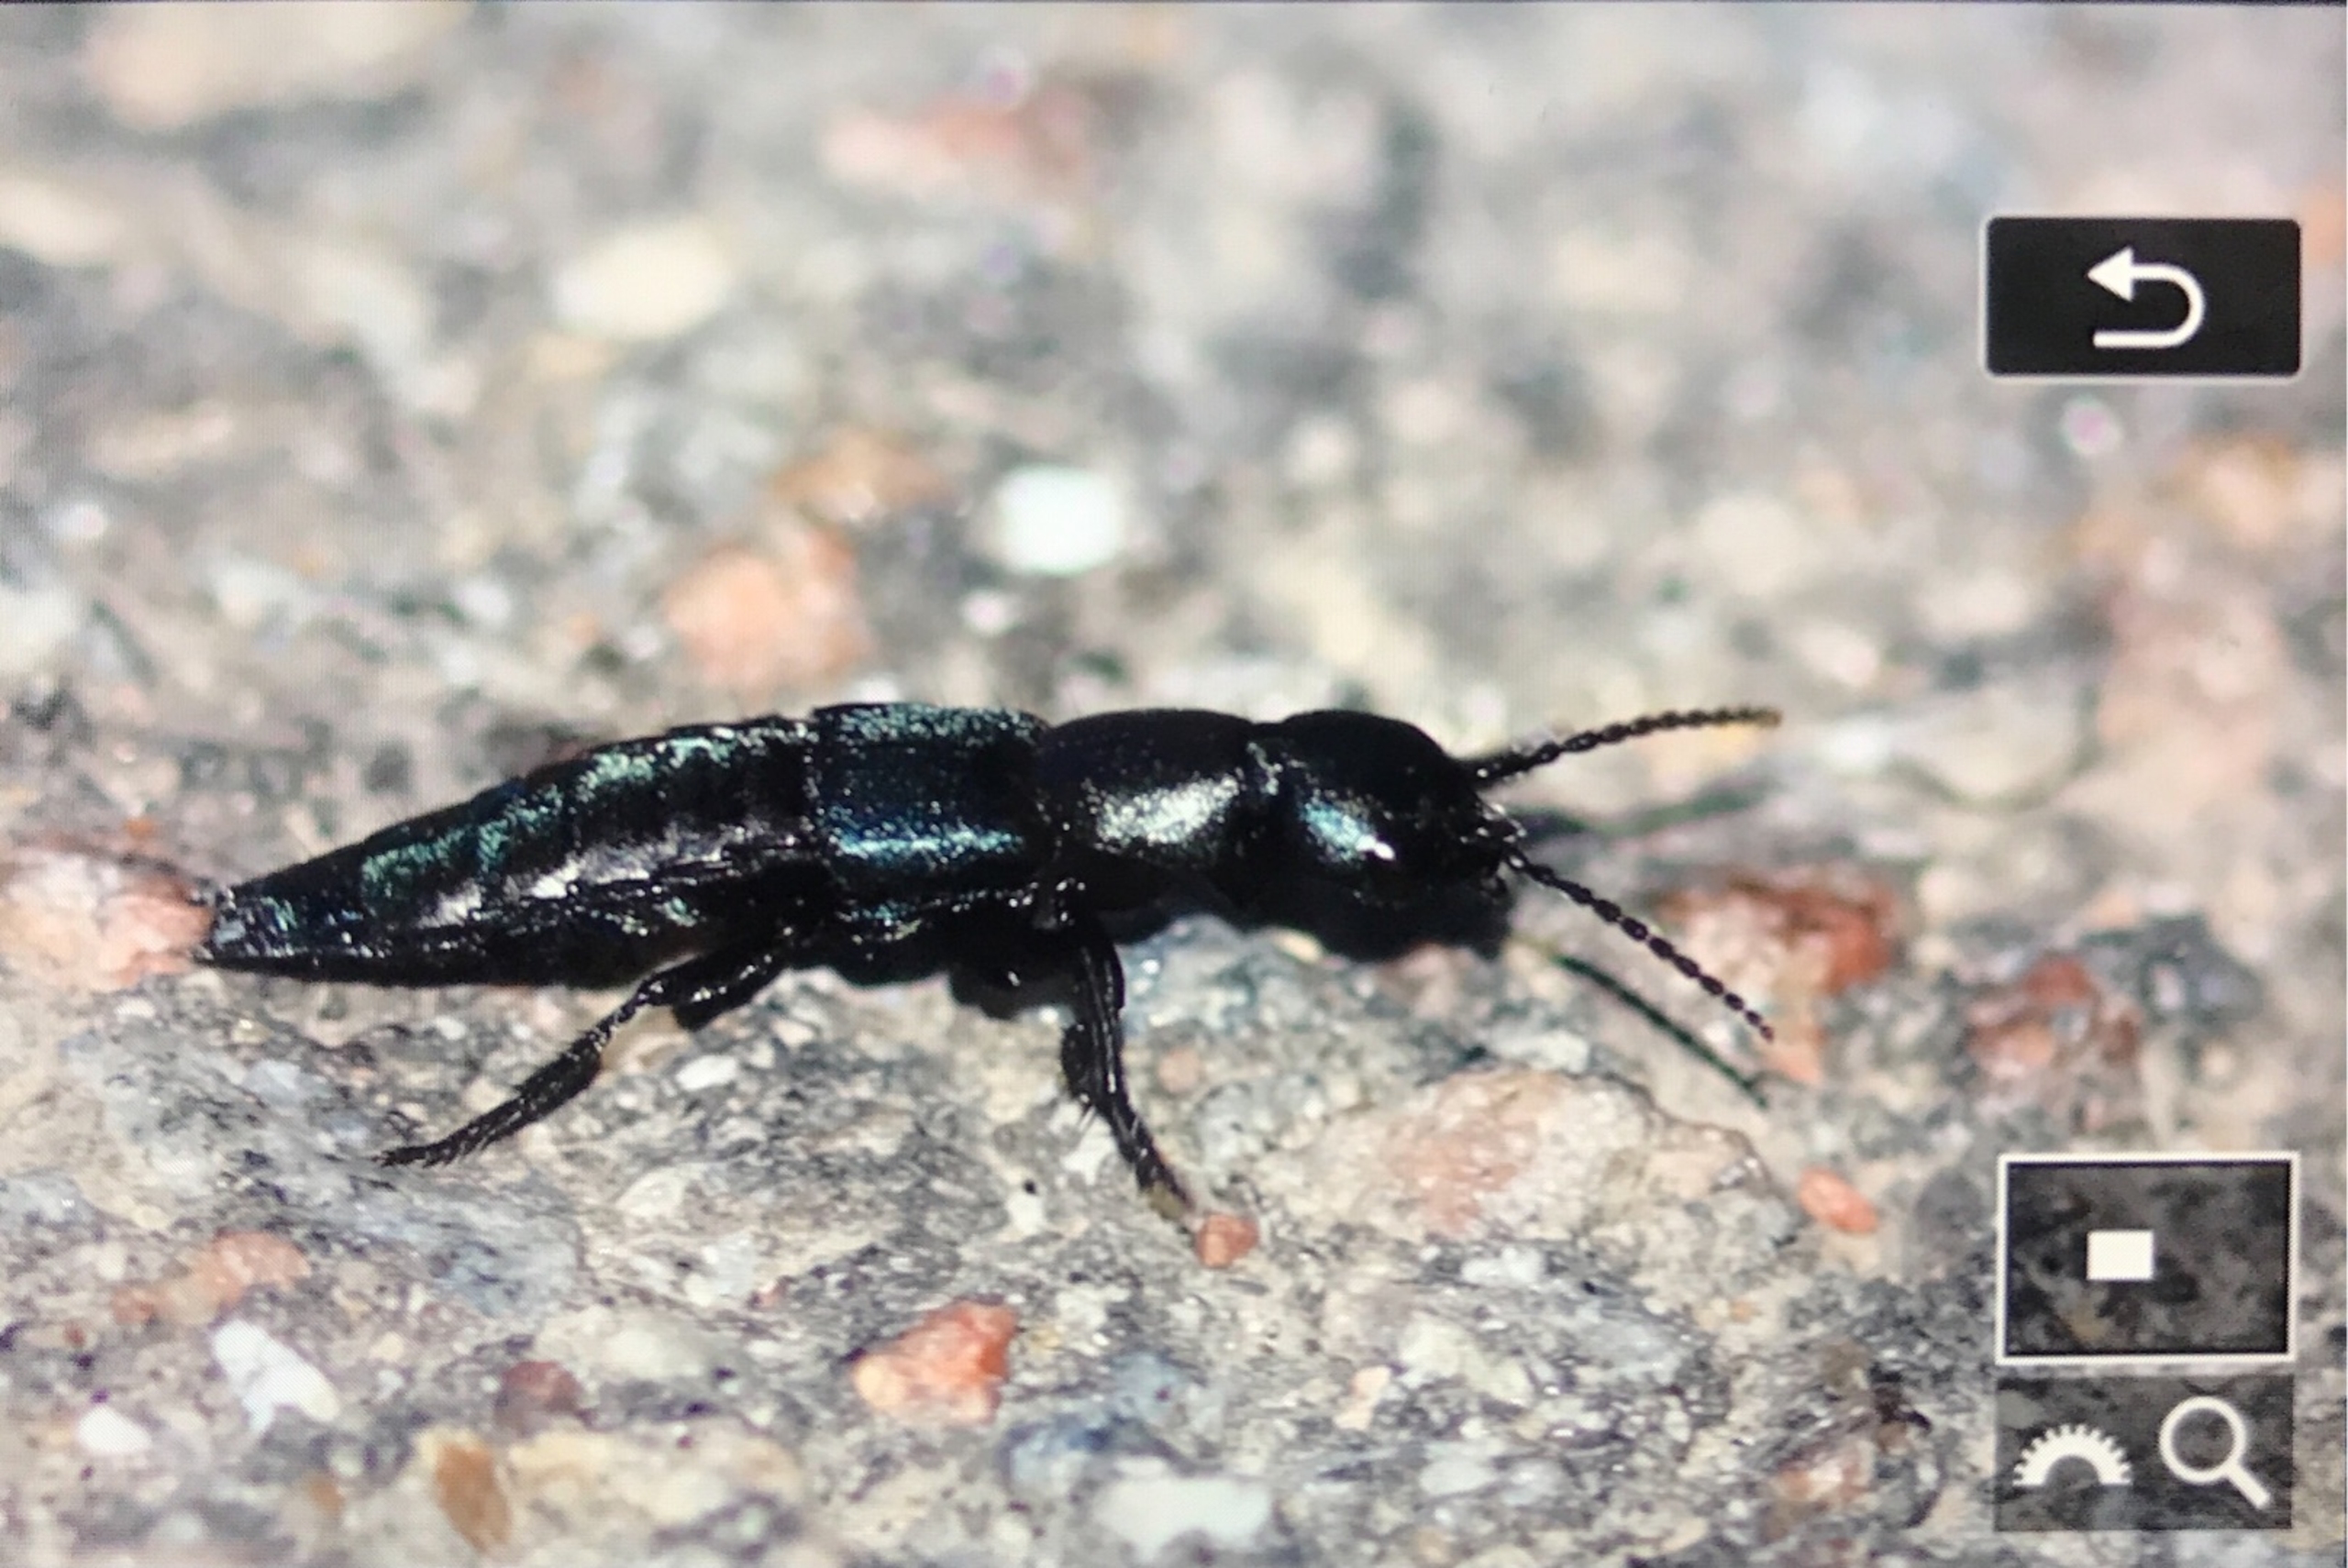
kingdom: Animalia
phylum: Arthropoda
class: Insecta
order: Coleoptera
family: Staphylinidae
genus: Ocypus
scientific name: Ocypus ophthalmicus
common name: Blå kæmperovbille
